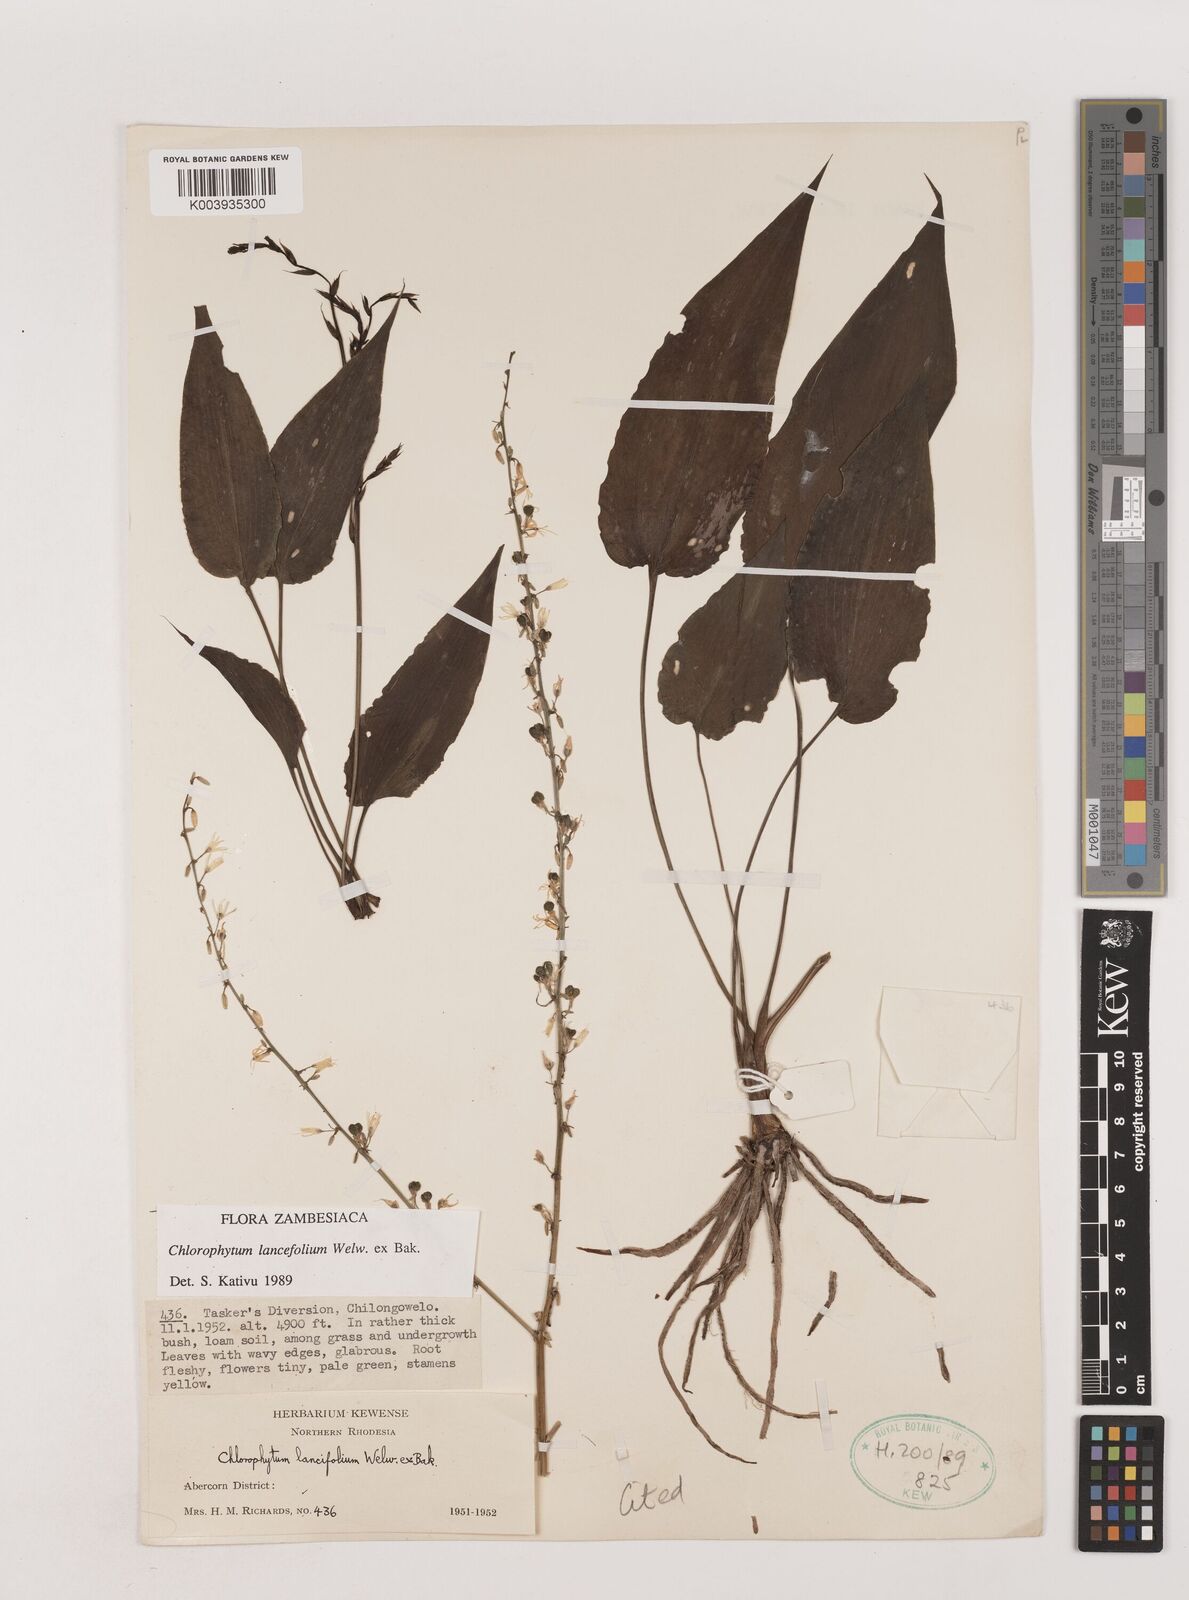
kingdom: Plantae
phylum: Tracheophyta
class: Liliopsida
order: Asparagales
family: Asparagaceae
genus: Chlorophytum
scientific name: Chlorophytum lancifolium
